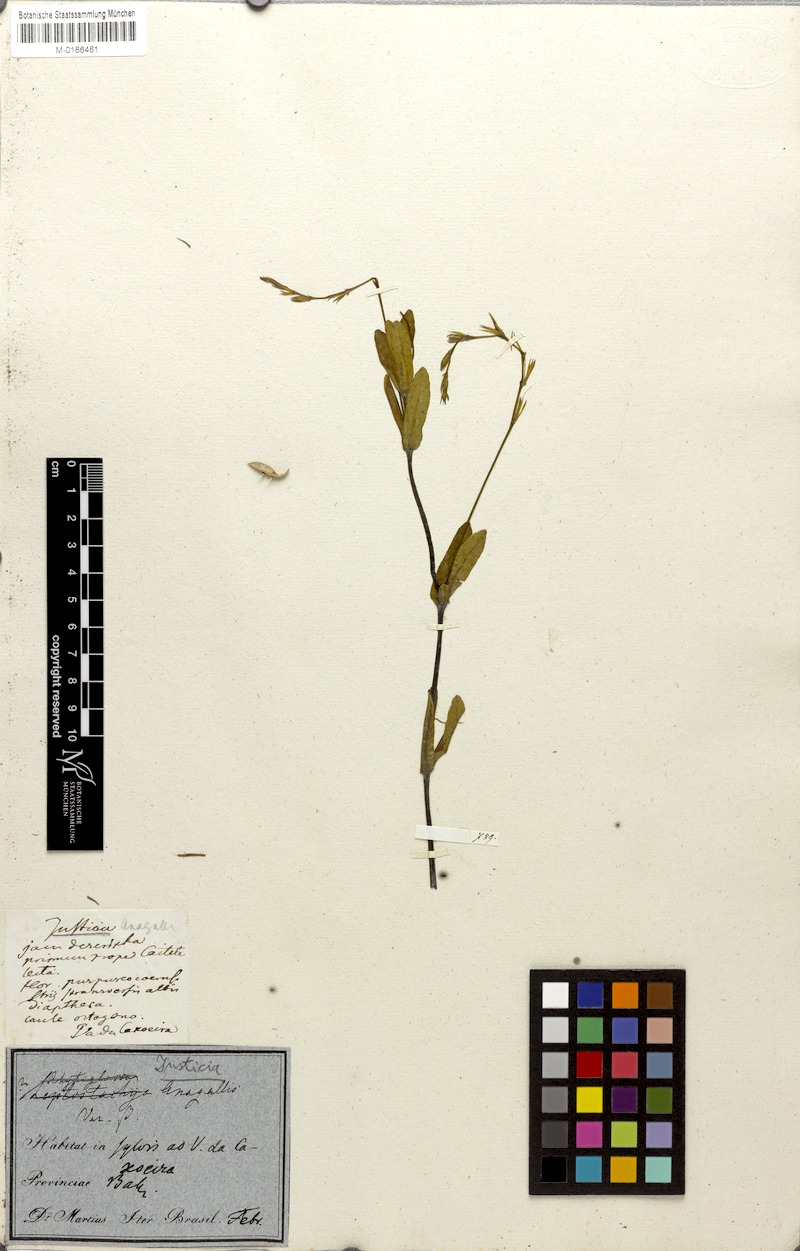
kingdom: Plantae
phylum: Tracheophyta
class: Magnoliopsida
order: Lamiales
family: Acanthaceae
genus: Dianthera
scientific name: Dianthera laevilinguis
